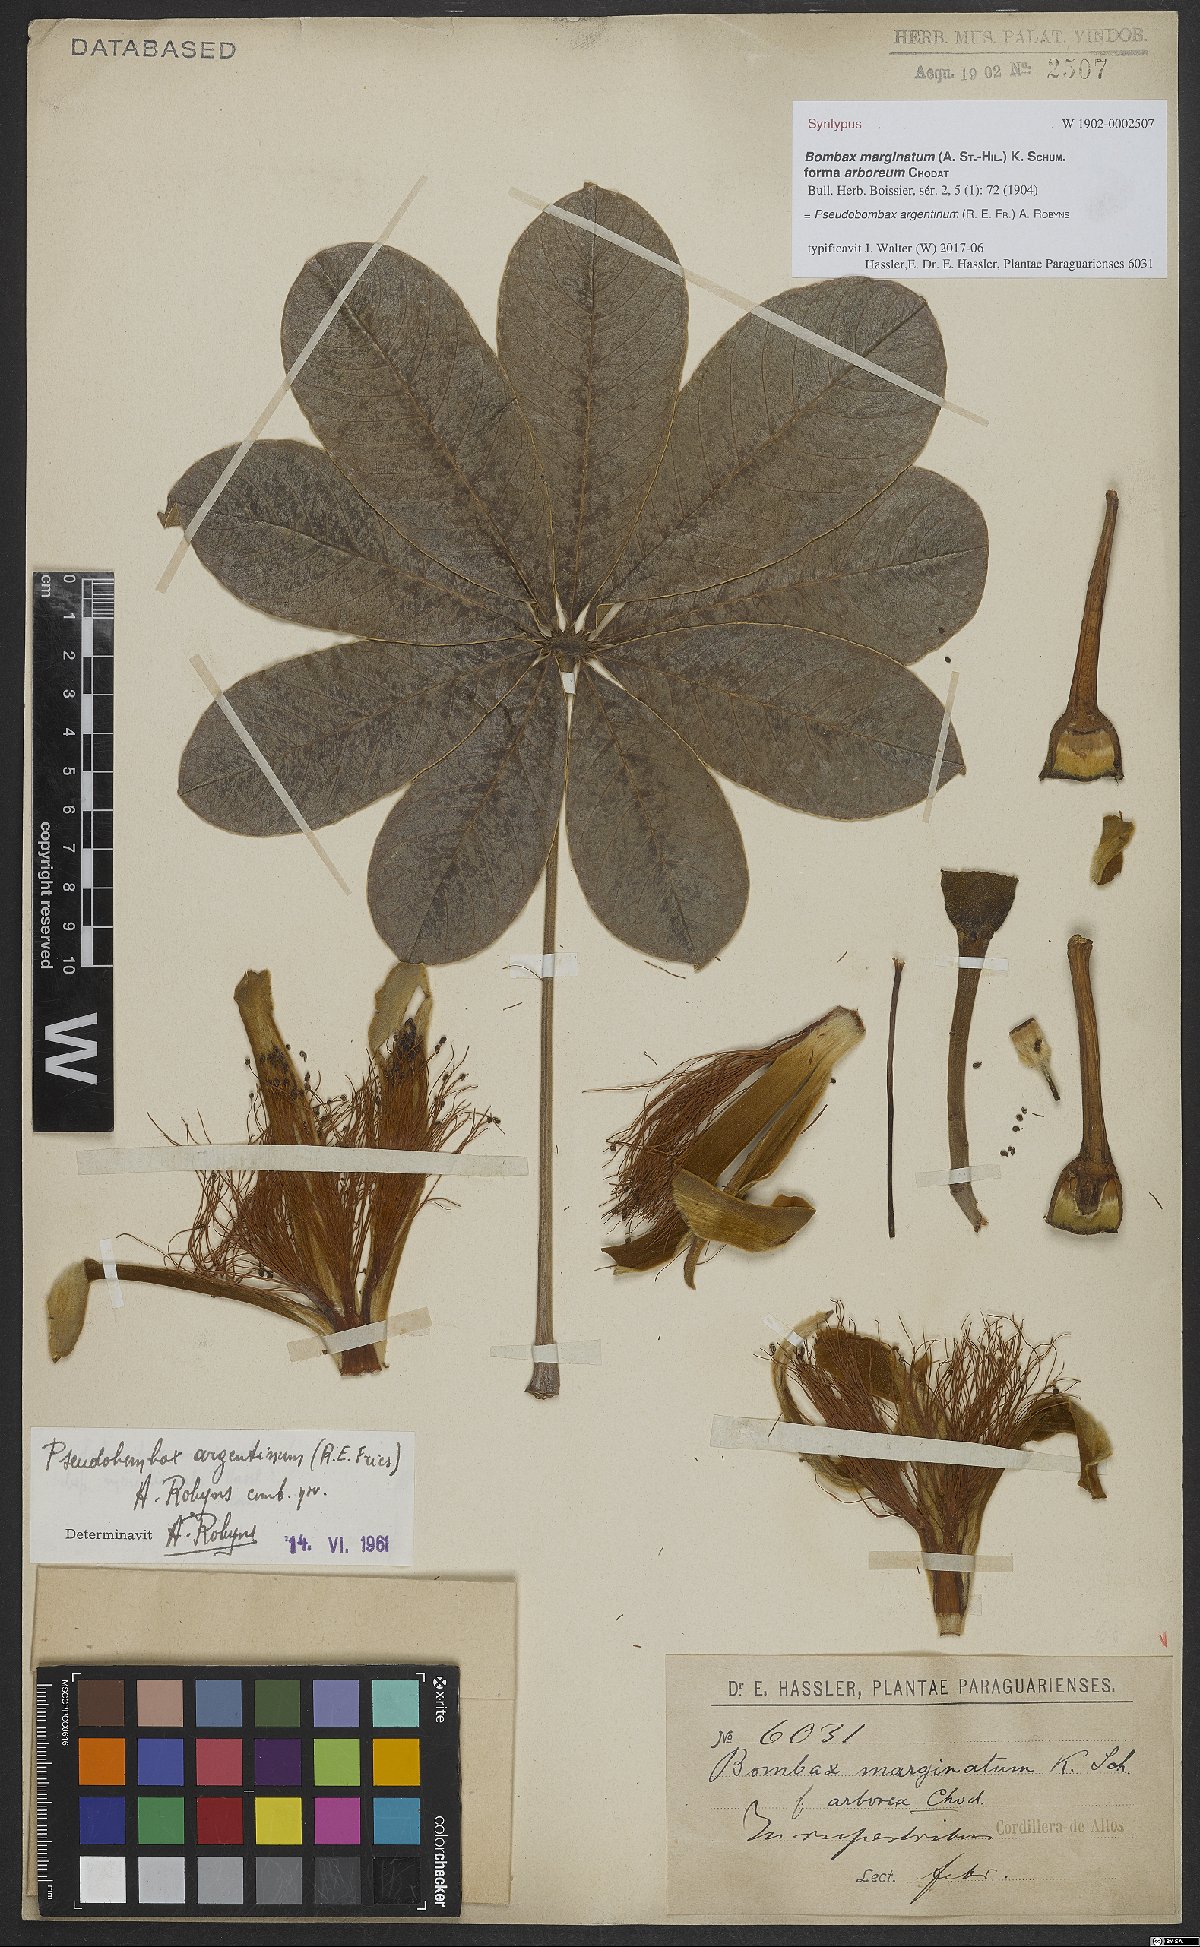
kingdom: Plantae
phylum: Tracheophyta
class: Magnoliopsida
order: Malvales
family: Malvaceae
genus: Pseudobombax
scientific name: Pseudobombax argentinum
